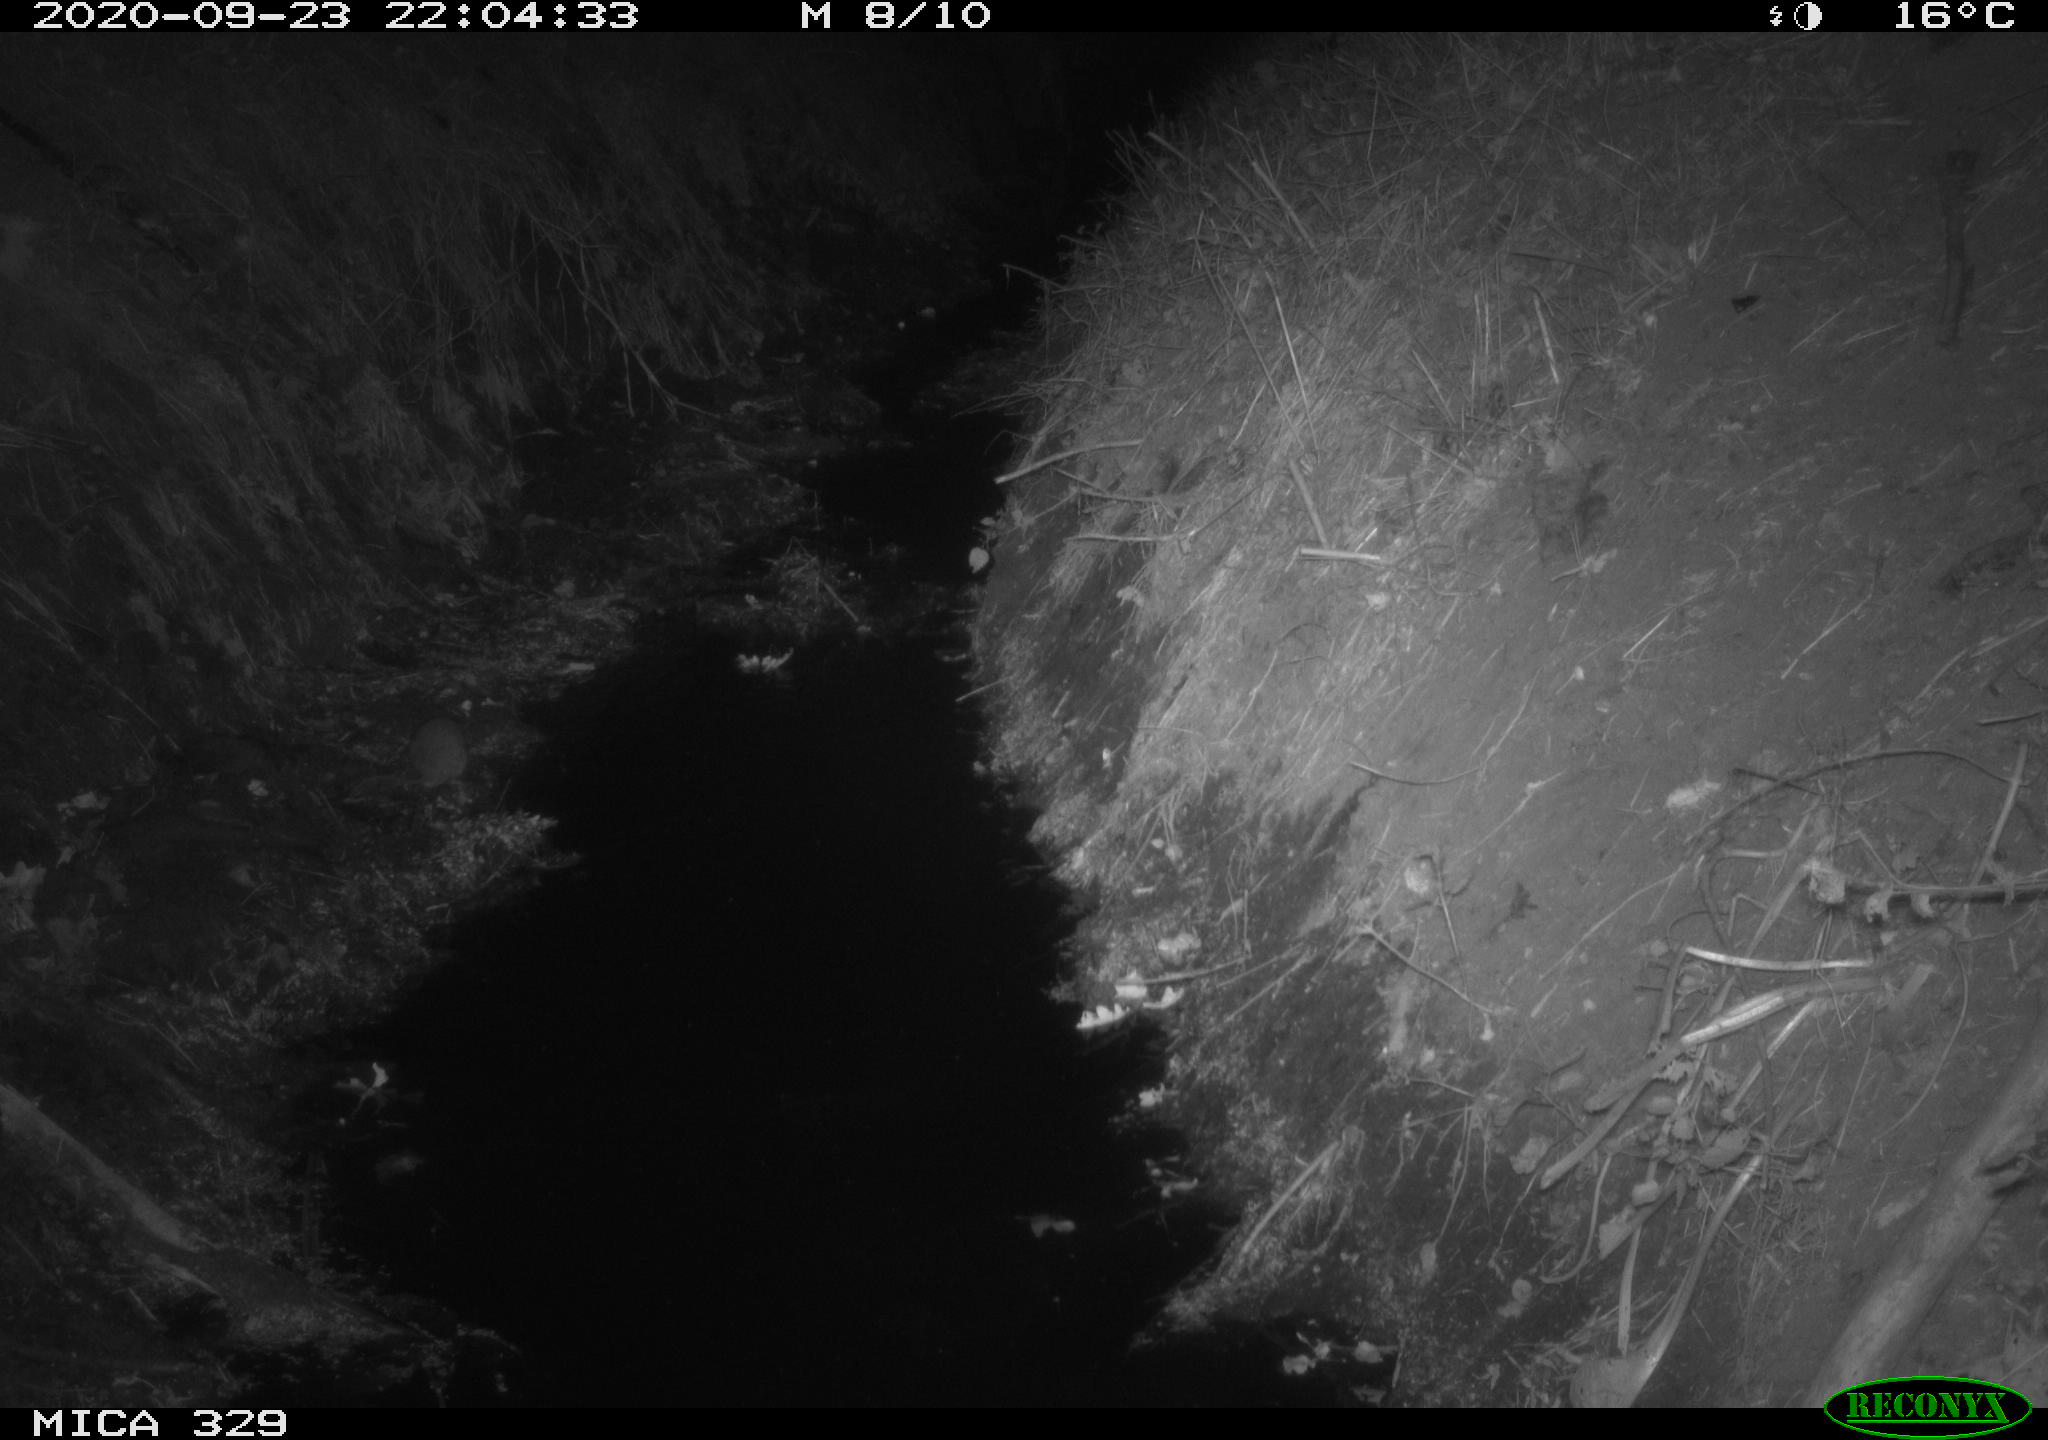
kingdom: Animalia
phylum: Chordata
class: Mammalia
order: Rodentia
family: Muridae
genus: Rattus
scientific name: Rattus norvegicus
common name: Brown rat
